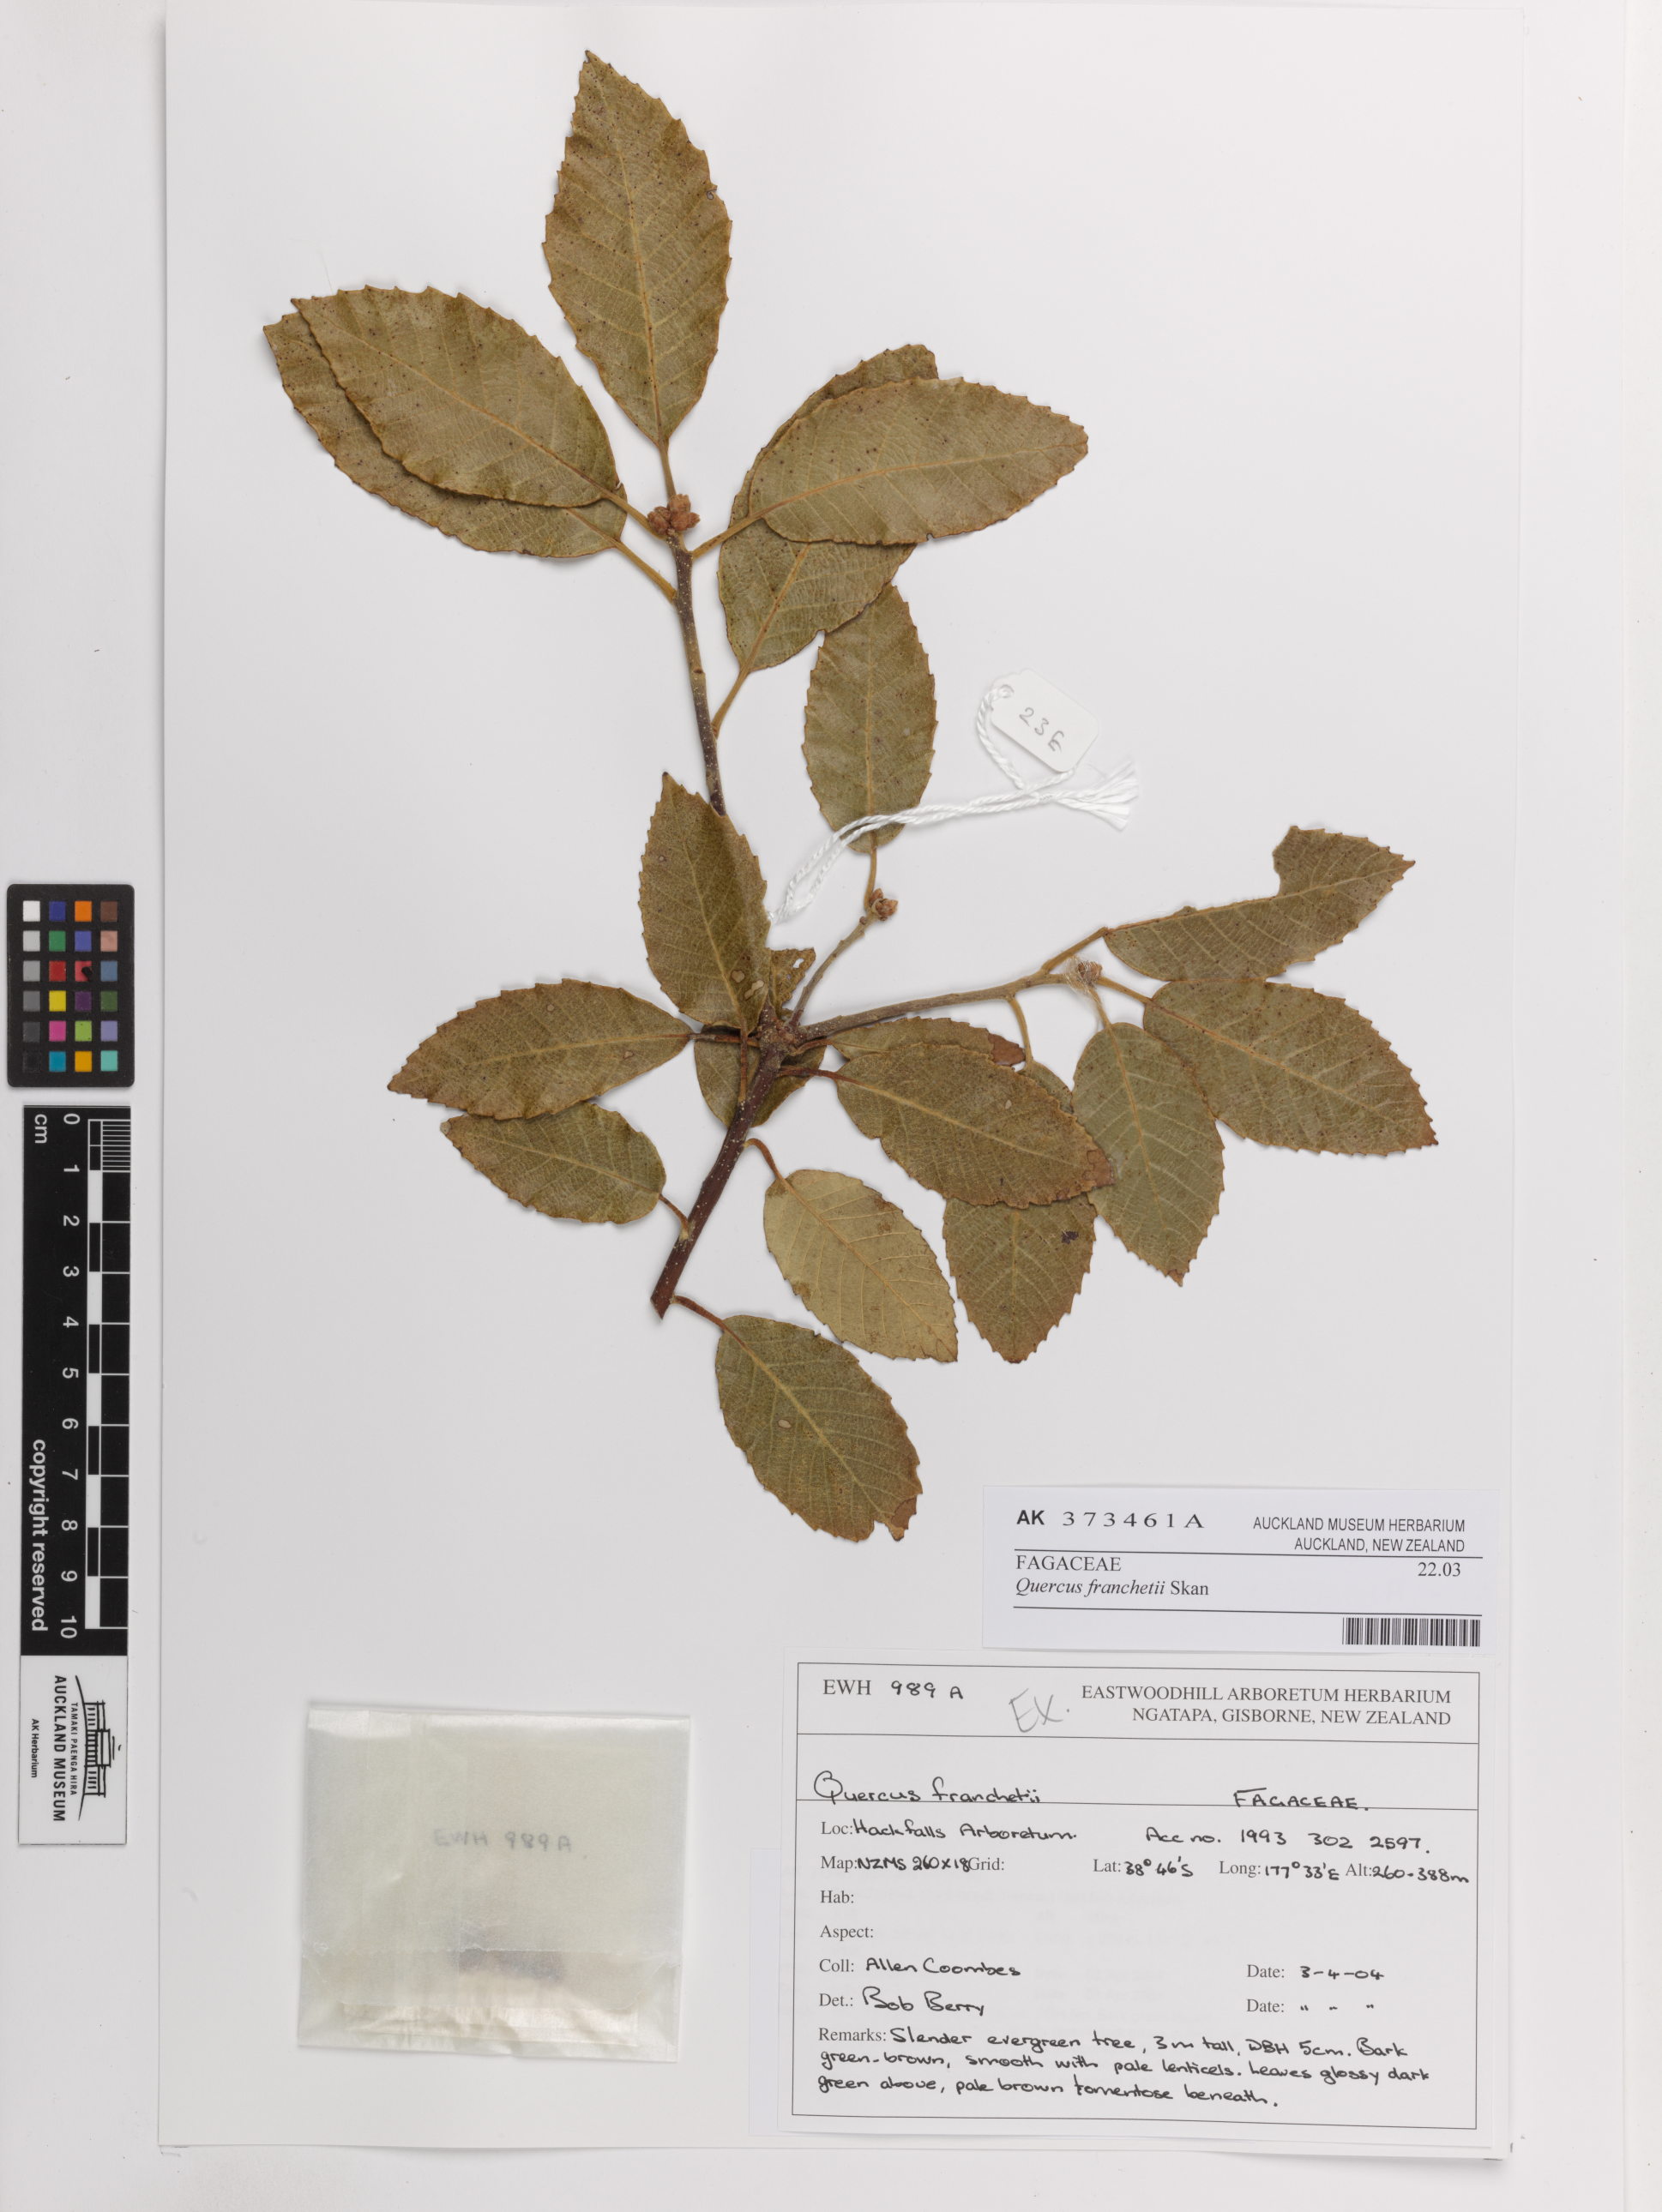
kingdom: Plantae
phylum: Tracheophyta
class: Magnoliopsida
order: Fagales
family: Fagaceae
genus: Quercus
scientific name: Quercus franchetii
